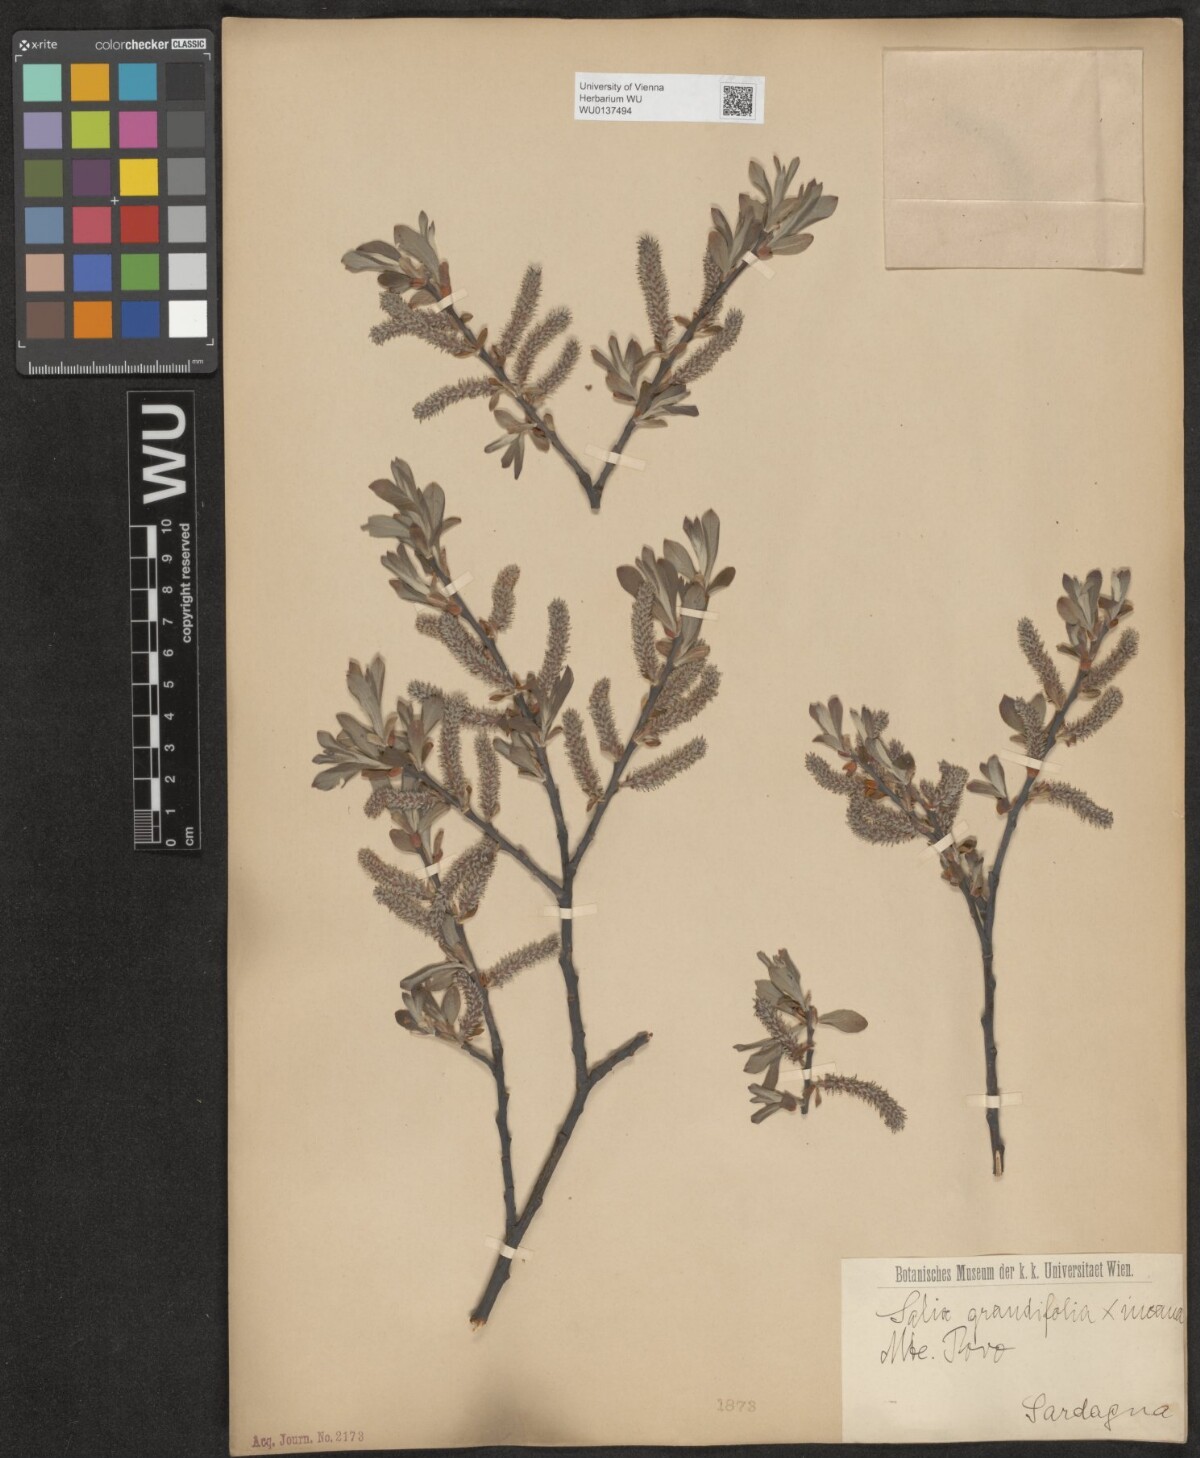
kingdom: Plantae
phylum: Tracheophyta
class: Magnoliopsida
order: Malpighiales
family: Salicaceae
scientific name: Salicaceae
